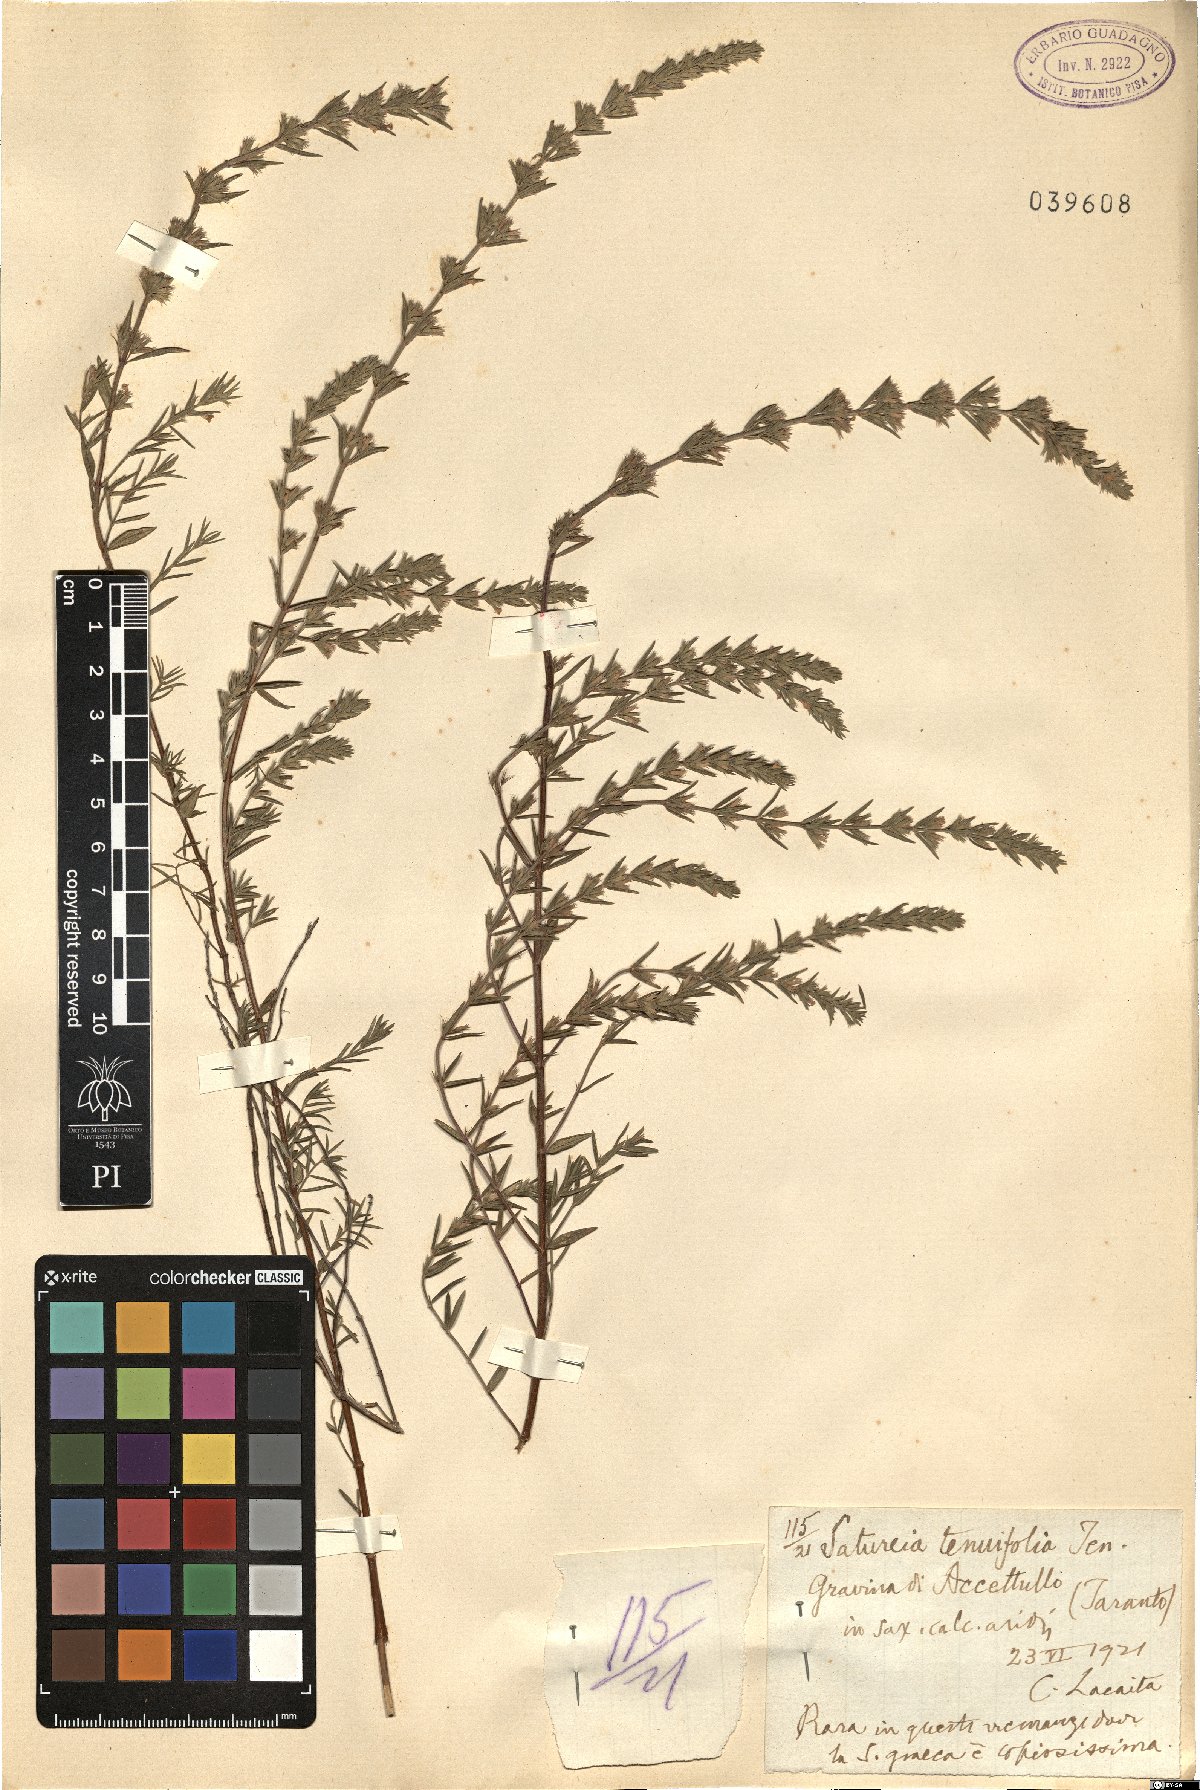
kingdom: Plantae
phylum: Tracheophyta
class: Magnoliopsida
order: Lamiales
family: Lamiaceae
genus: Micromeria
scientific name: Micromeria graeca
